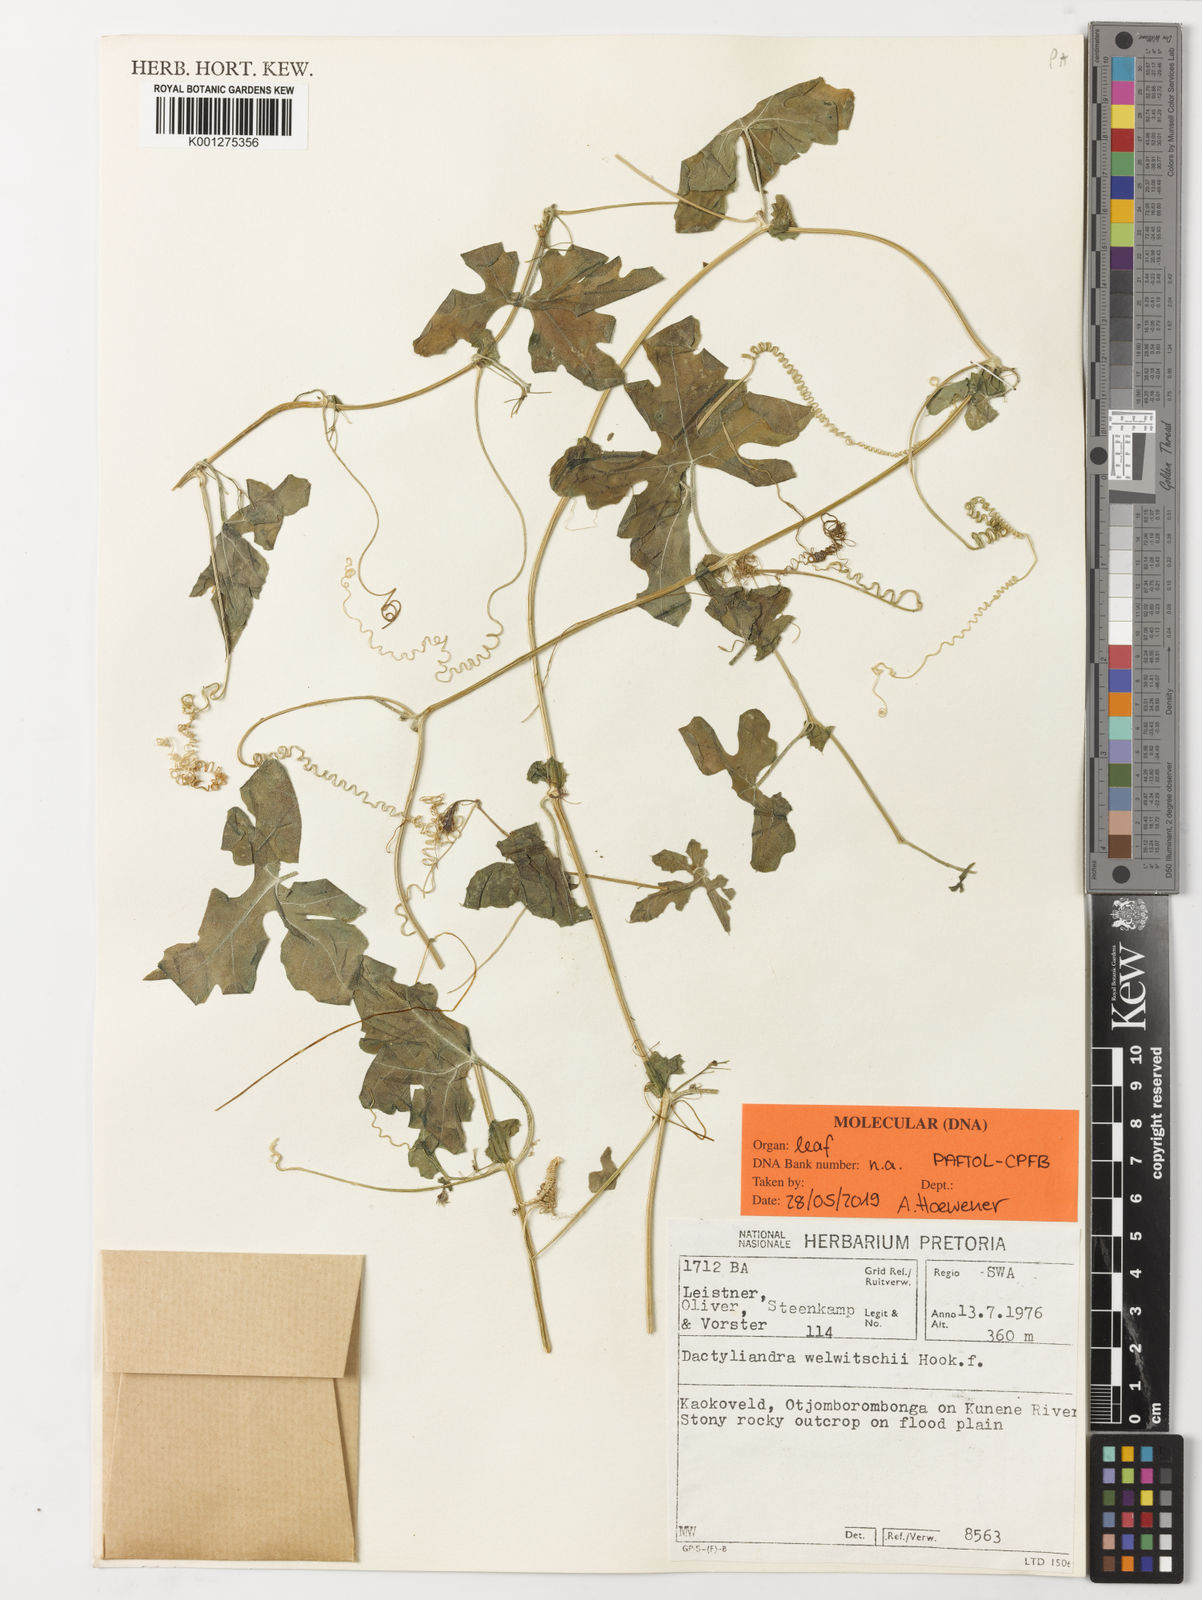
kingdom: Plantae
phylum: Tracheophyta
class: Magnoliopsida
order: Cucurbitales
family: Cucurbitaceae
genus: Dactyliandra
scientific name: Dactyliandra welwitschii
